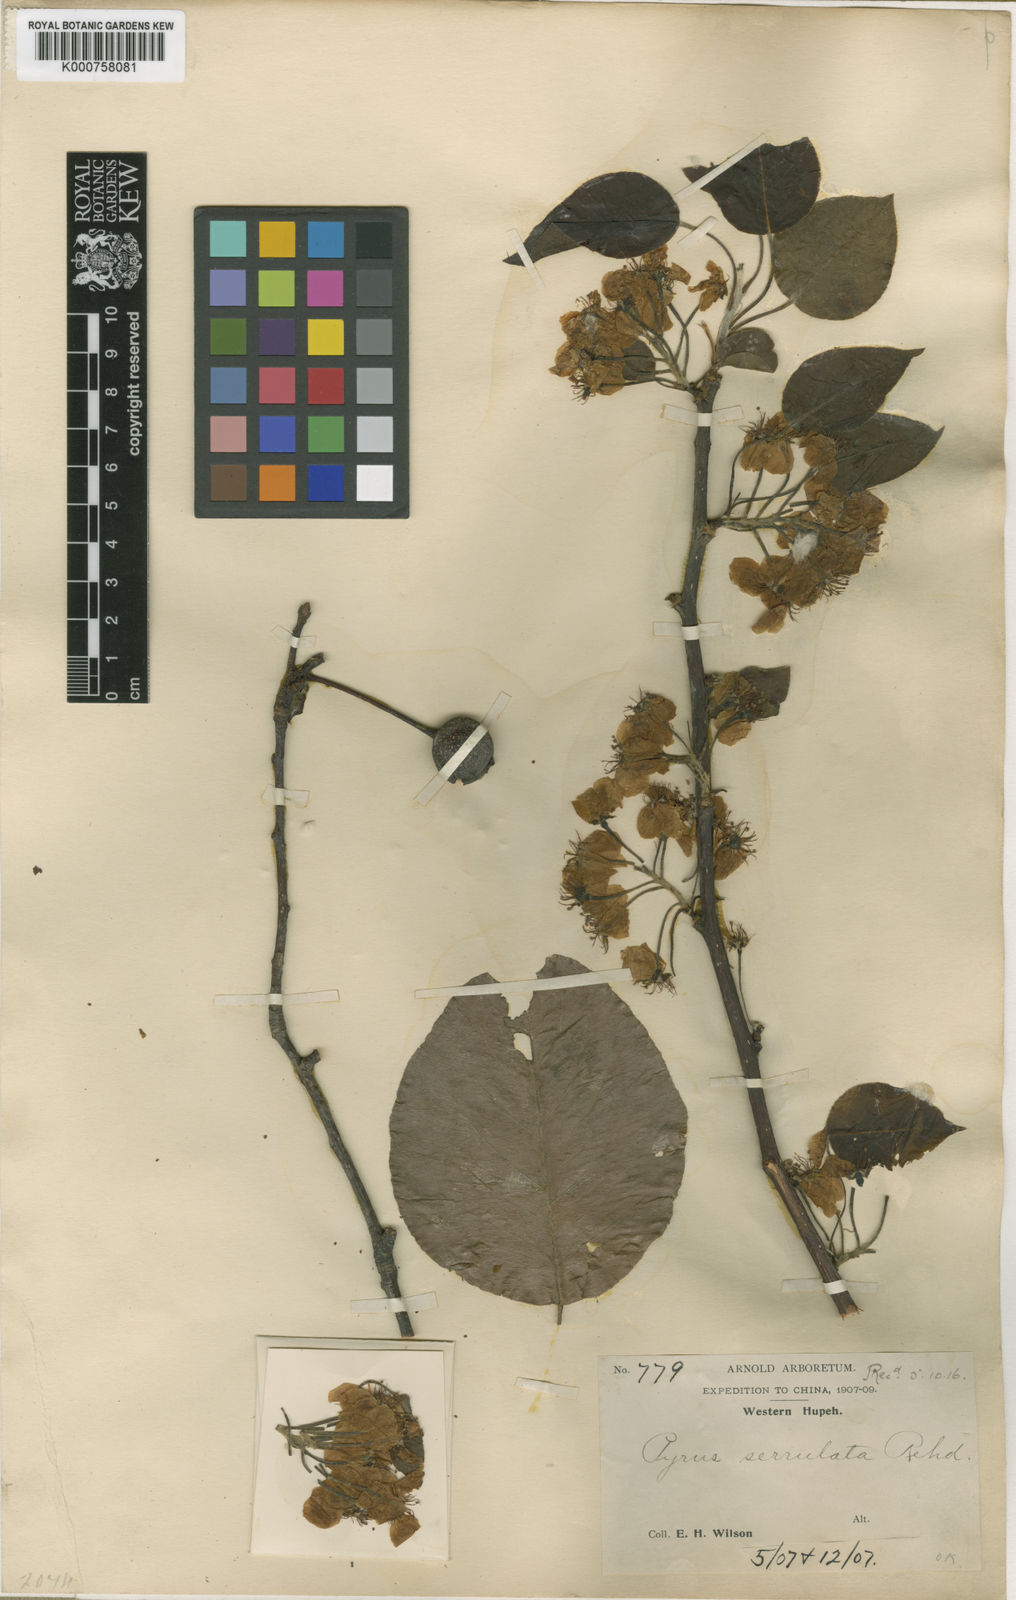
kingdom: Plantae
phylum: Tracheophyta
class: Magnoliopsida
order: Rosales
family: Rosaceae
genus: Pyrus
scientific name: Pyrus neoserrulata
